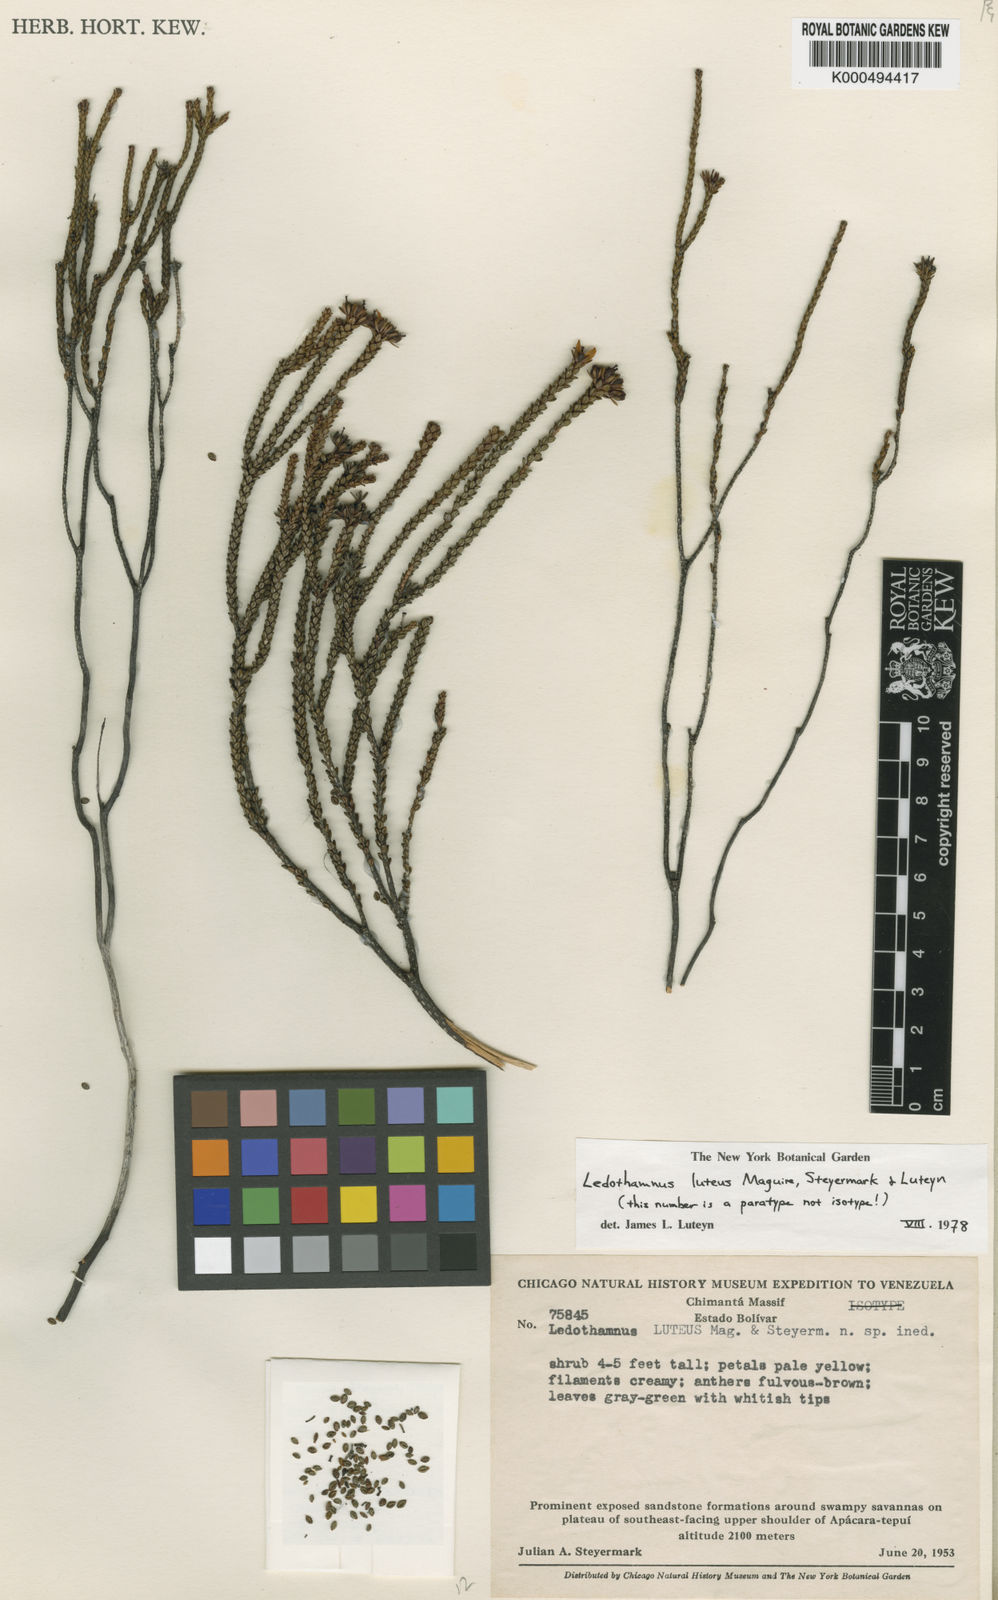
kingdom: Plantae
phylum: Tracheophyta
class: Magnoliopsida
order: Ericales
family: Ericaceae
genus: Ledothamnus
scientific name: Ledothamnus luteus
